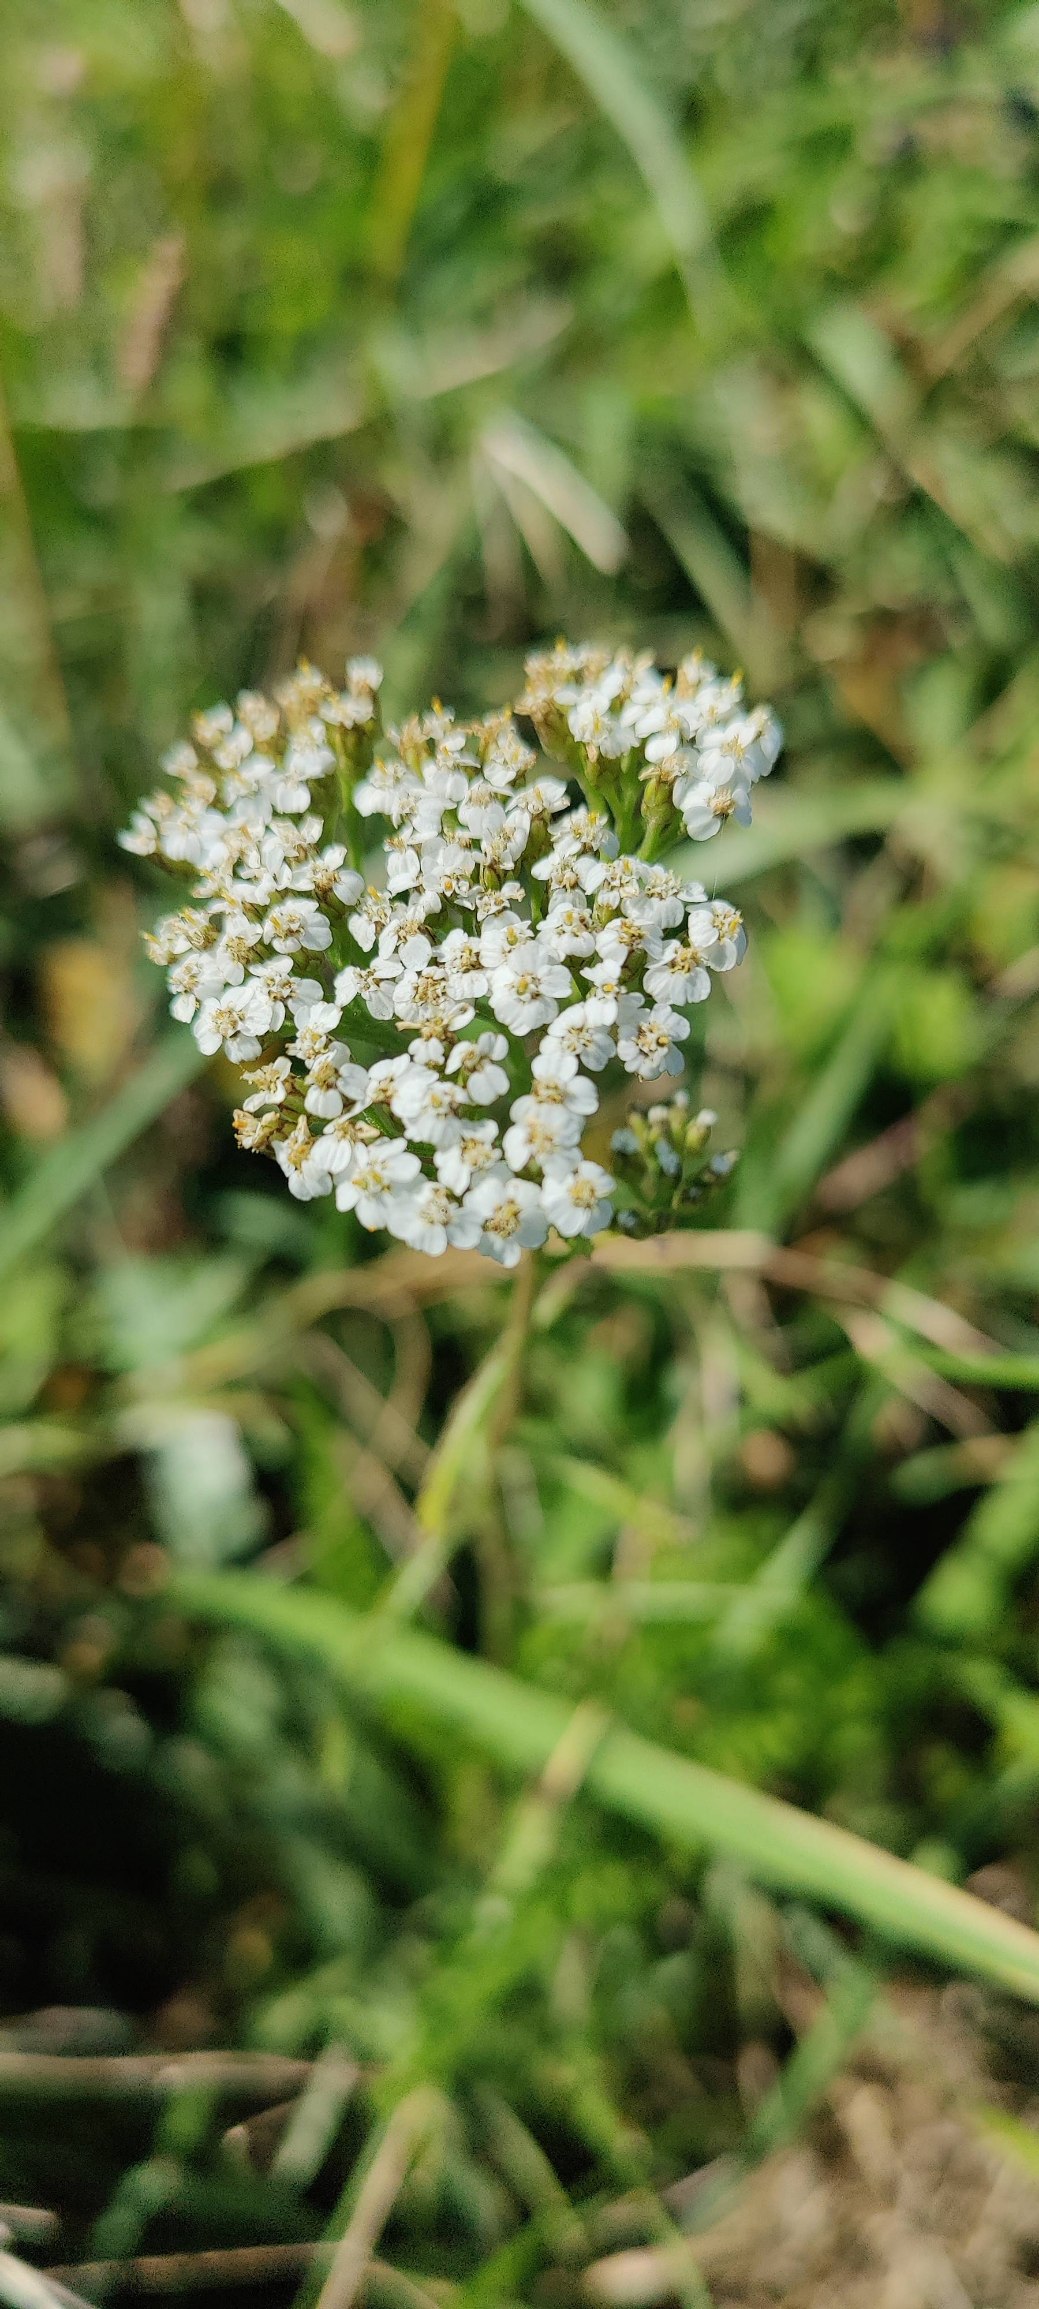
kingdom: Plantae
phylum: Tracheophyta
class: Magnoliopsida
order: Asterales
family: Asteraceae
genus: Achillea
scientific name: Achillea millefolium
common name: Almindelig røllike
